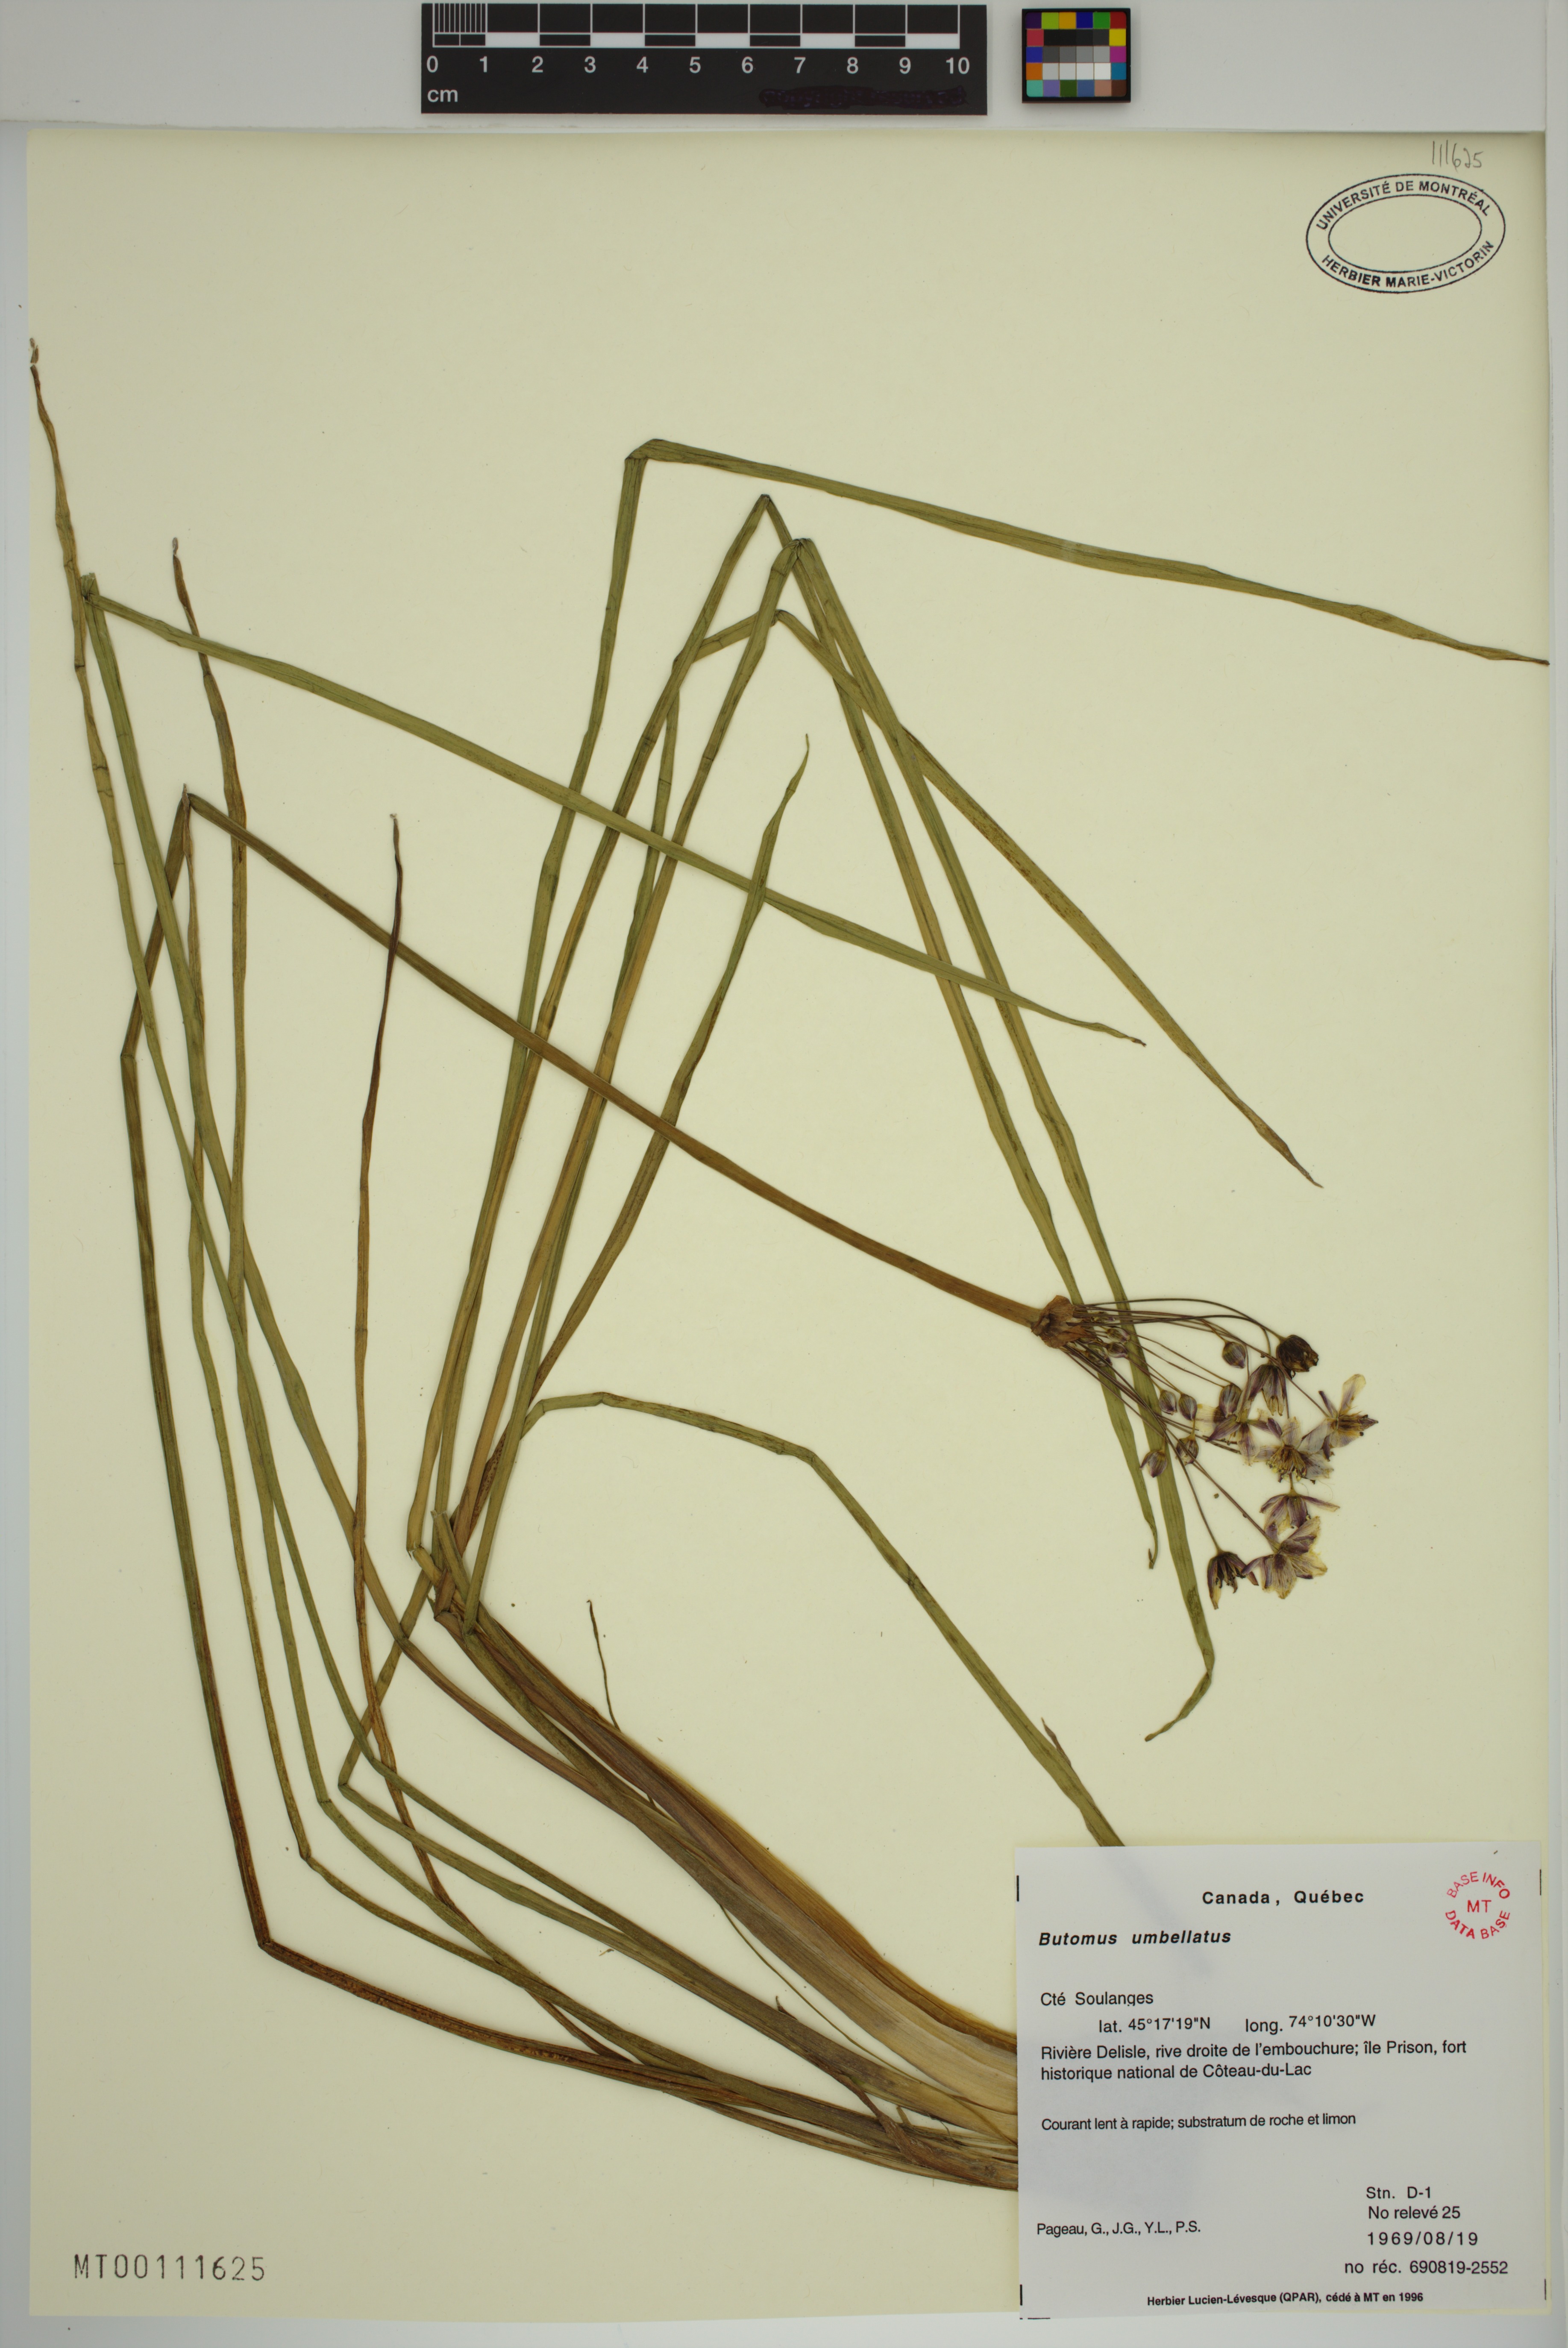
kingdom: Plantae
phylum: Tracheophyta
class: Liliopsida
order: Alismatales
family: Butomaceae
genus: Butomus
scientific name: Butomus umbellatus
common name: Flowering-rush
